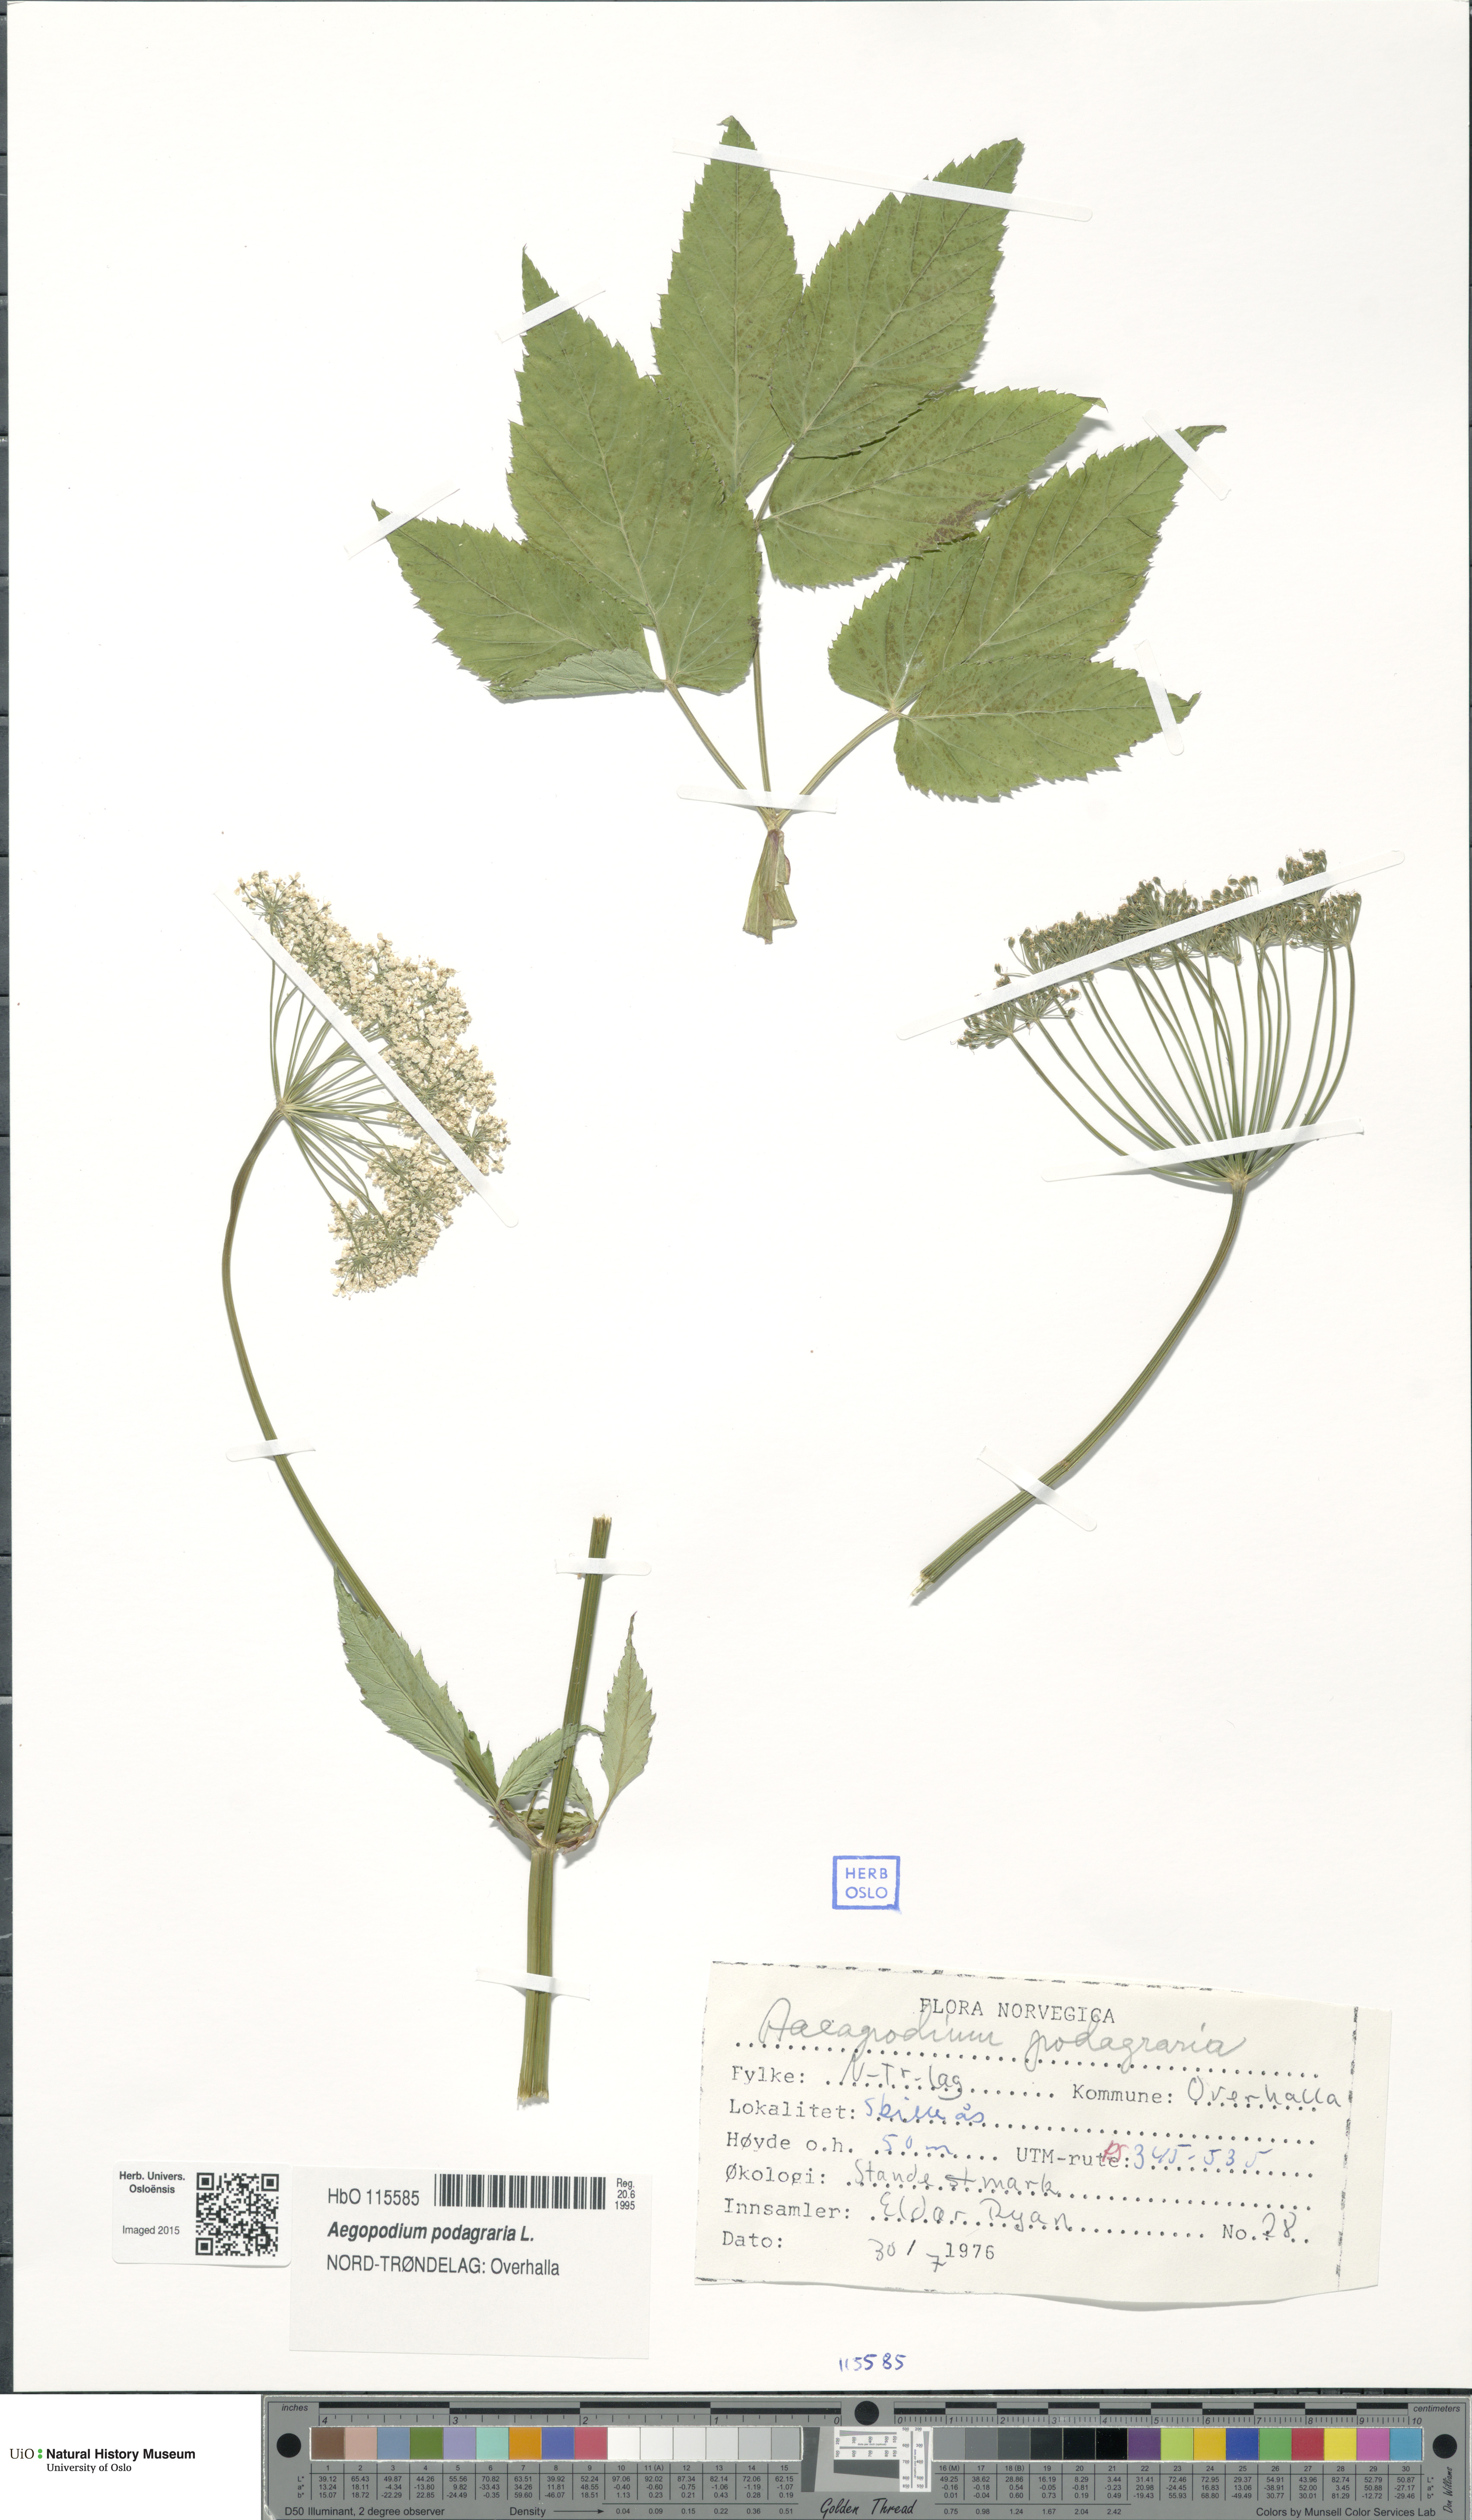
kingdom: Plantae
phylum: Tracheophyta
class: Magnoliopsida
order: Apiales
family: Apiaceae
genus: Aegopodium
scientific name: Aegopodium podagraria
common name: Ground-elder
